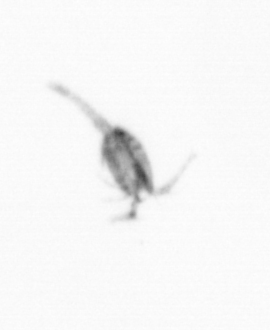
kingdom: Animalia
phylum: Arthropoda
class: Copepoda
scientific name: Copepoda
